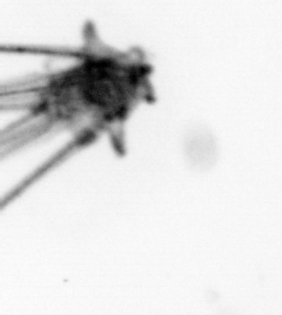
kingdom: Animalia
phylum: Echinodermata
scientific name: Echinodermata
